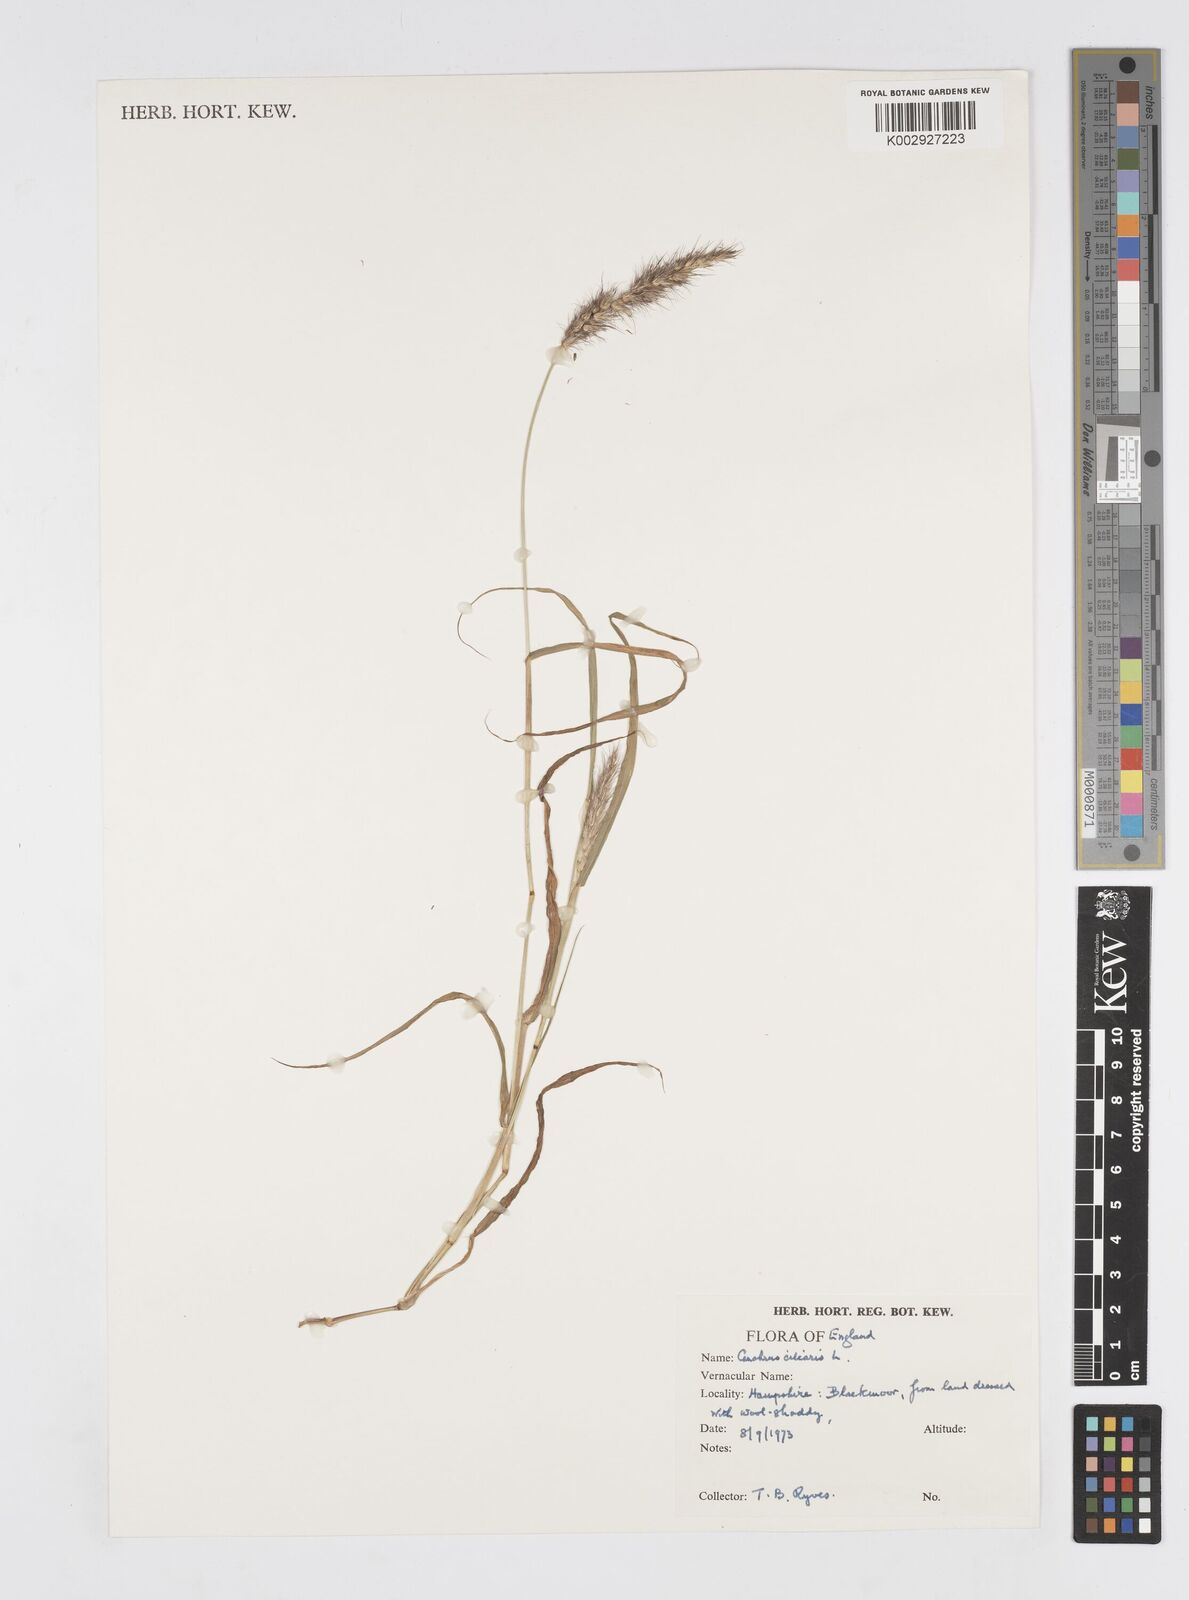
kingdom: Plantae
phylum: Tracheophyta
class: Liliopsida
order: Poales
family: Poaceae
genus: Cenchrus
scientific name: Cenchrus ciliaris
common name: Buffelgrass
